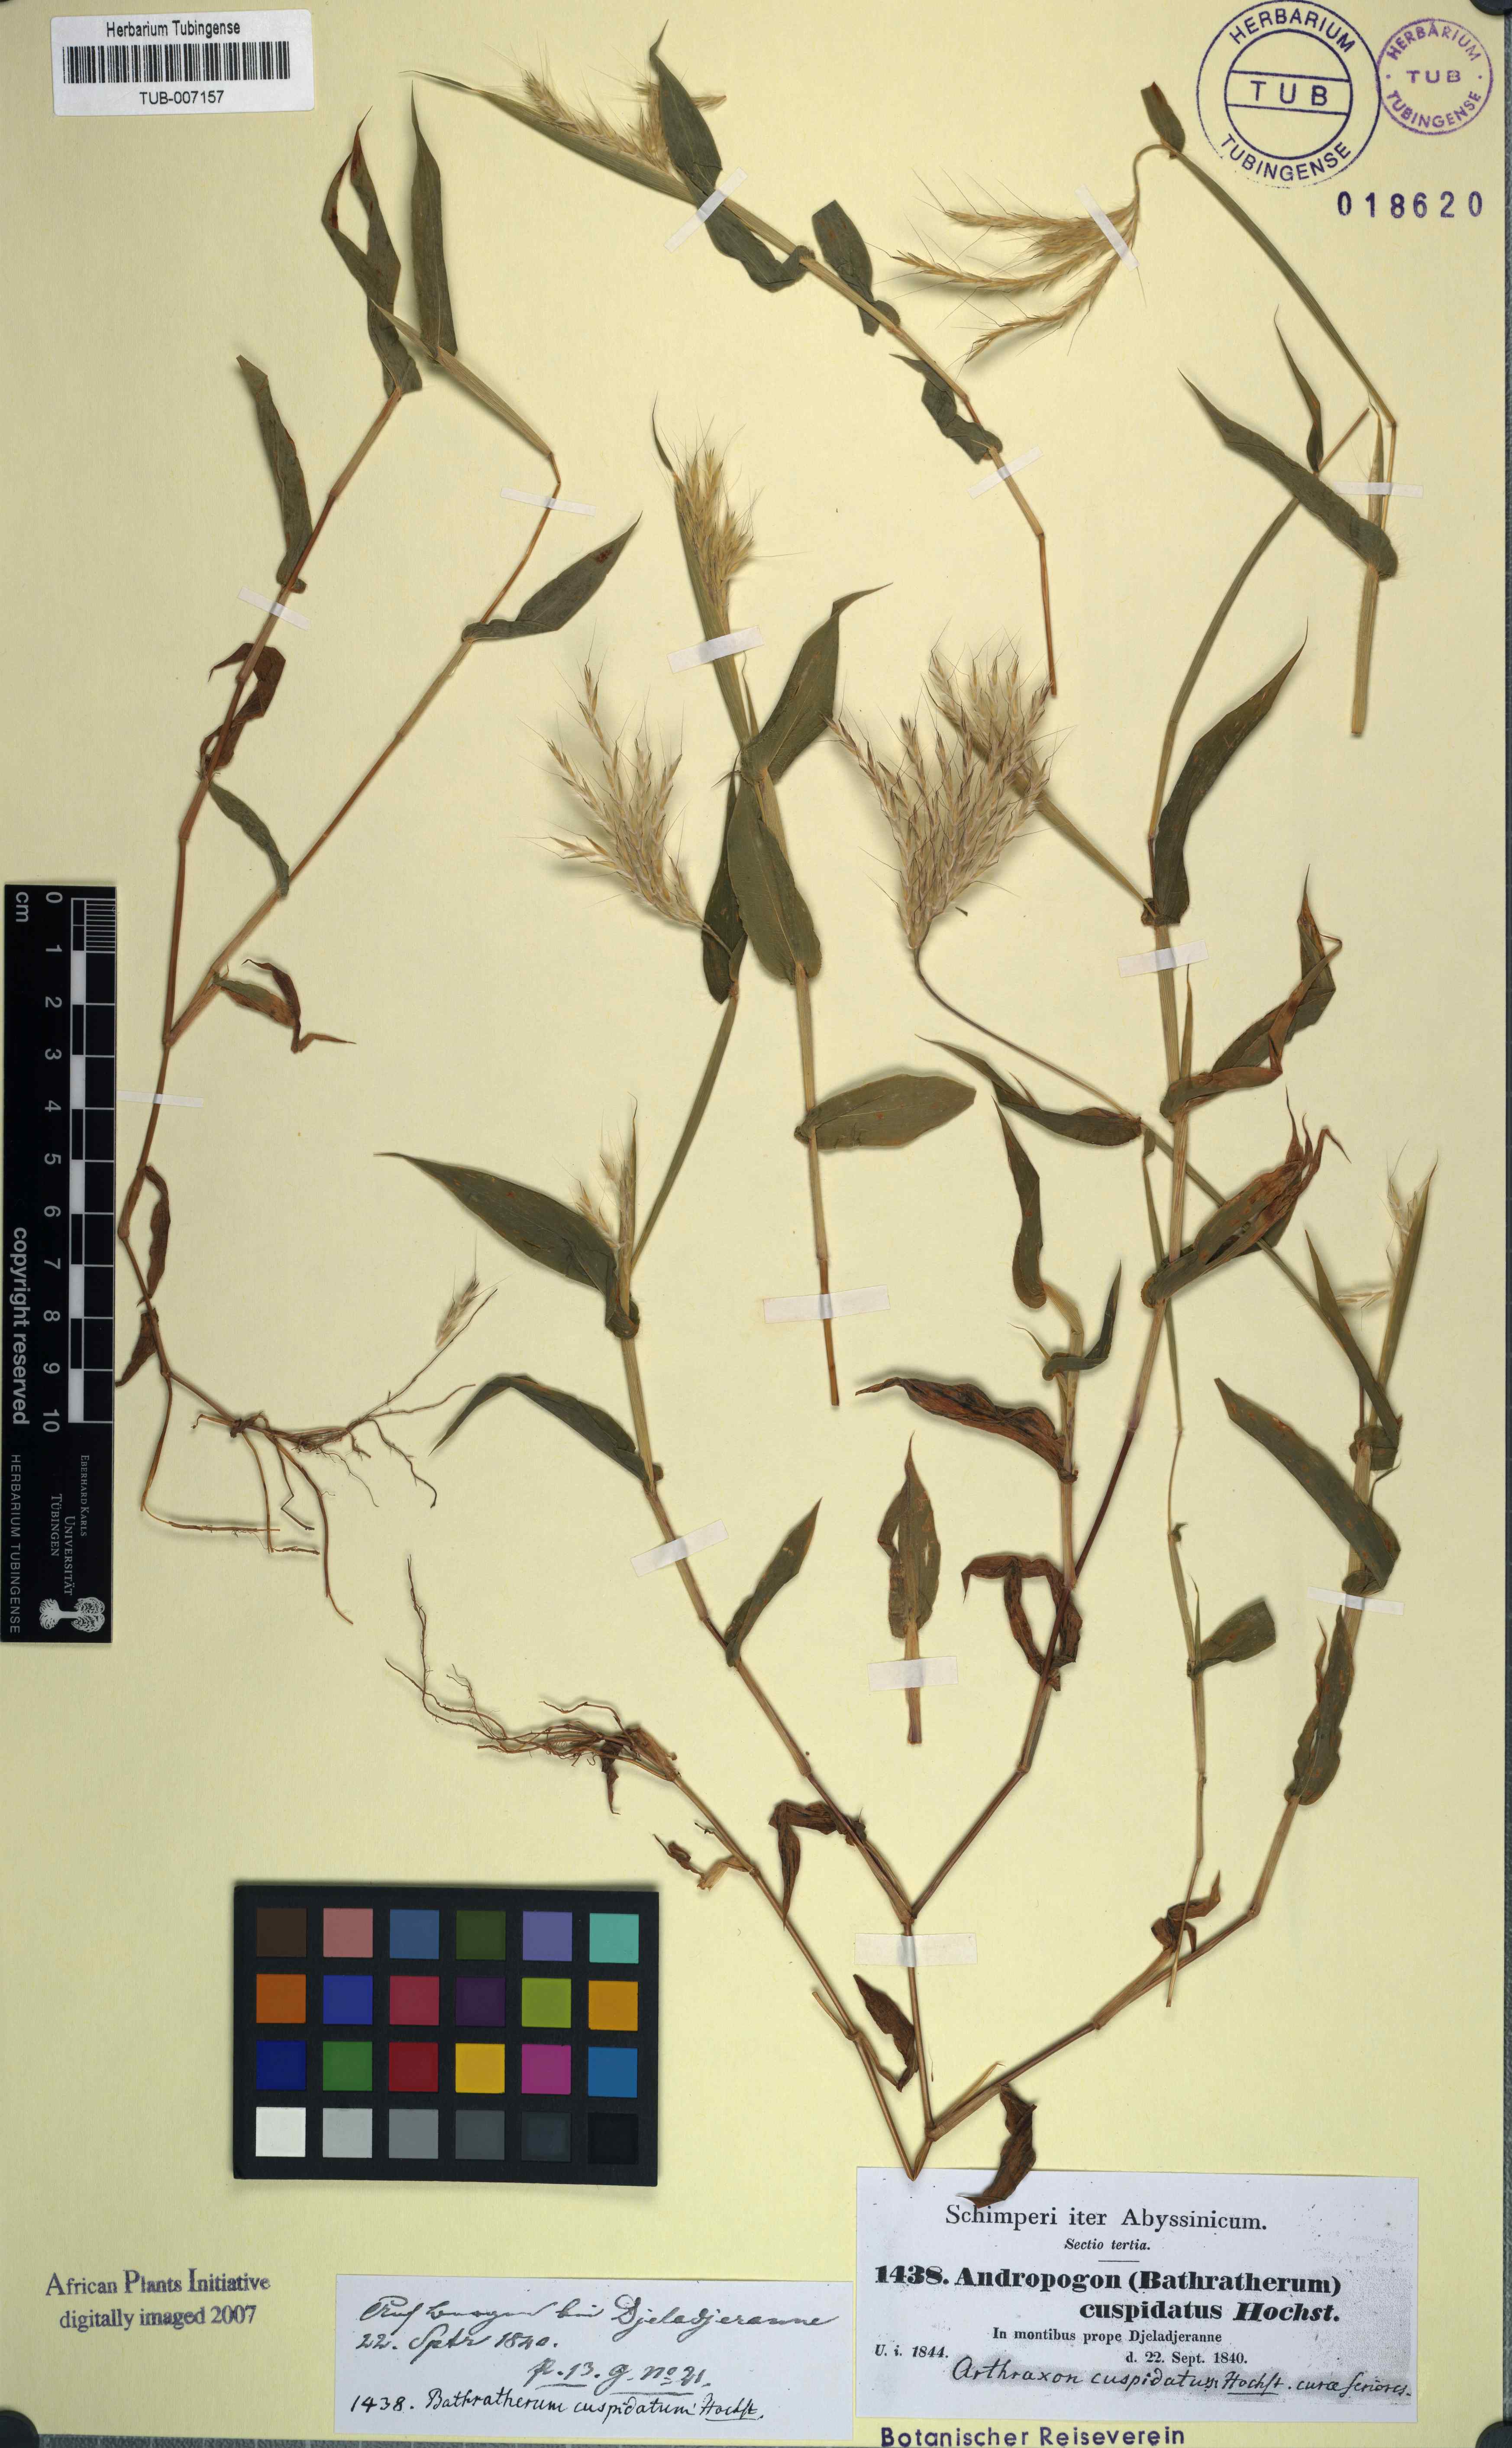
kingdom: Plantae
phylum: Tracheophyta
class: Liliopsida
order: Poales
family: Poaceae
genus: Arthraxon
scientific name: Arthraxon cuspidatus
